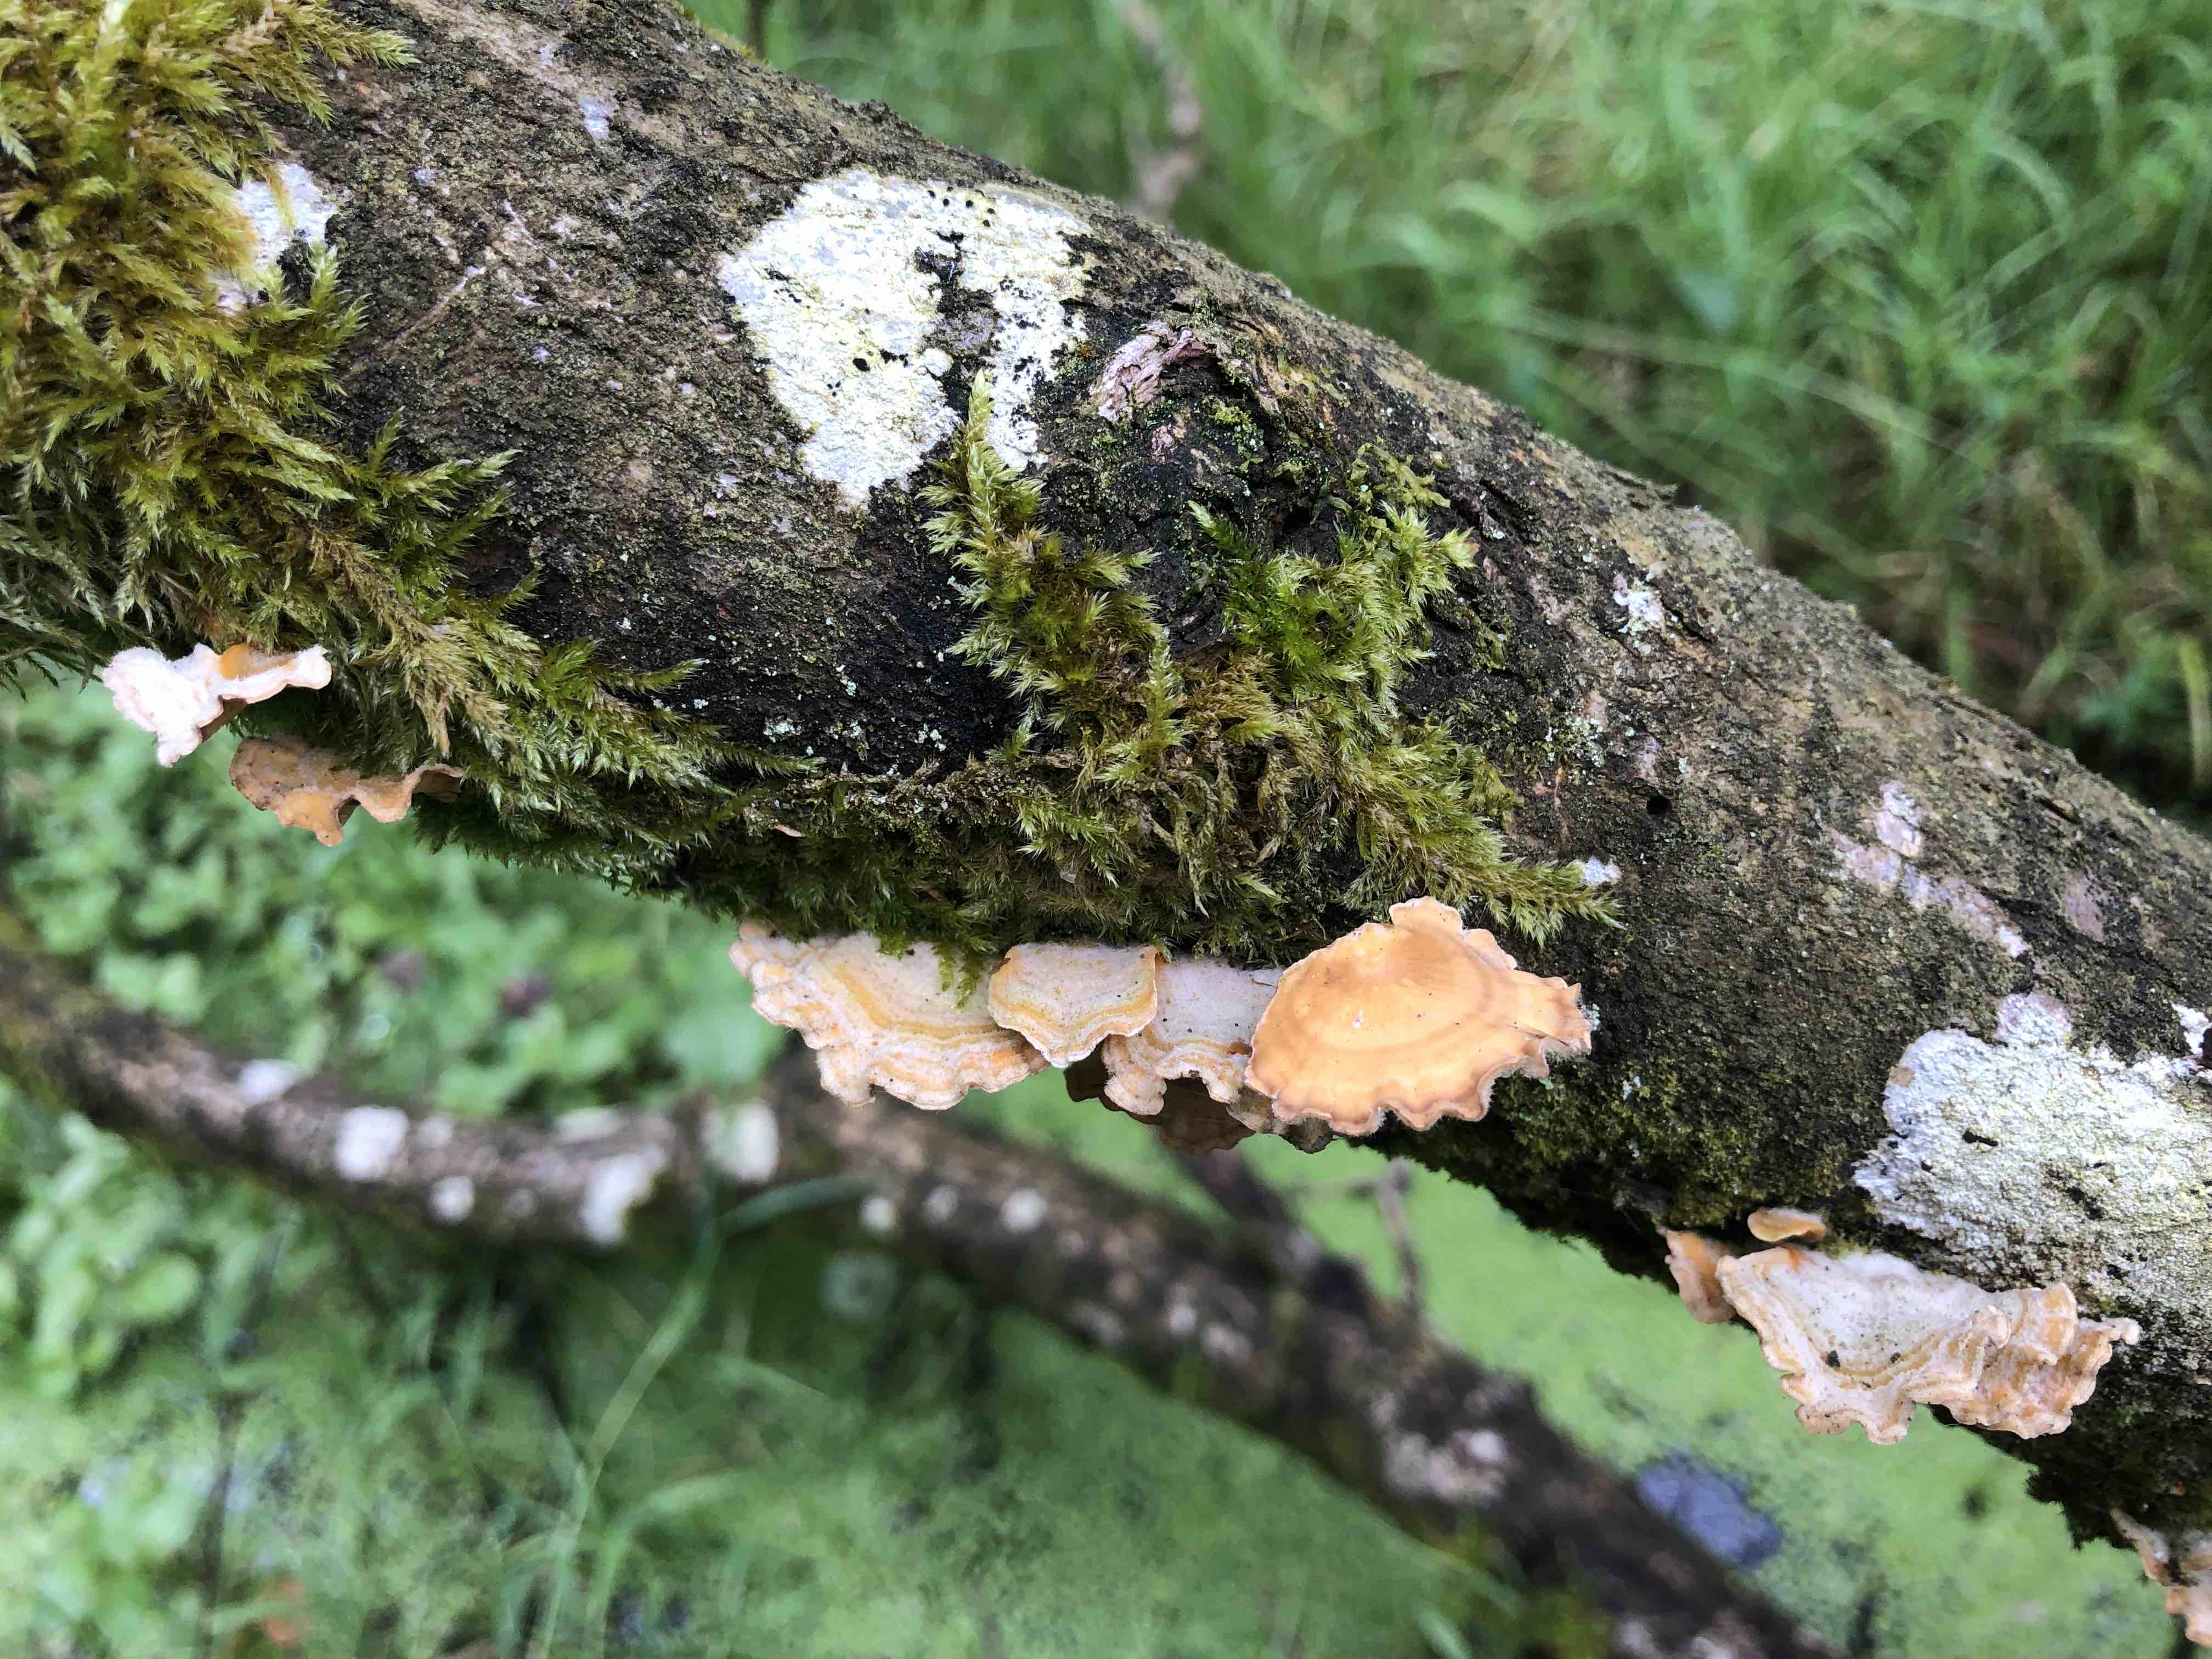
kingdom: Fungi
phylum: Basidiomycota
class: Agaricomycetes
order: Russulales
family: Stereaceae
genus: Stereum
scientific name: Stereum hirsutum
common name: håret lædersvamp
